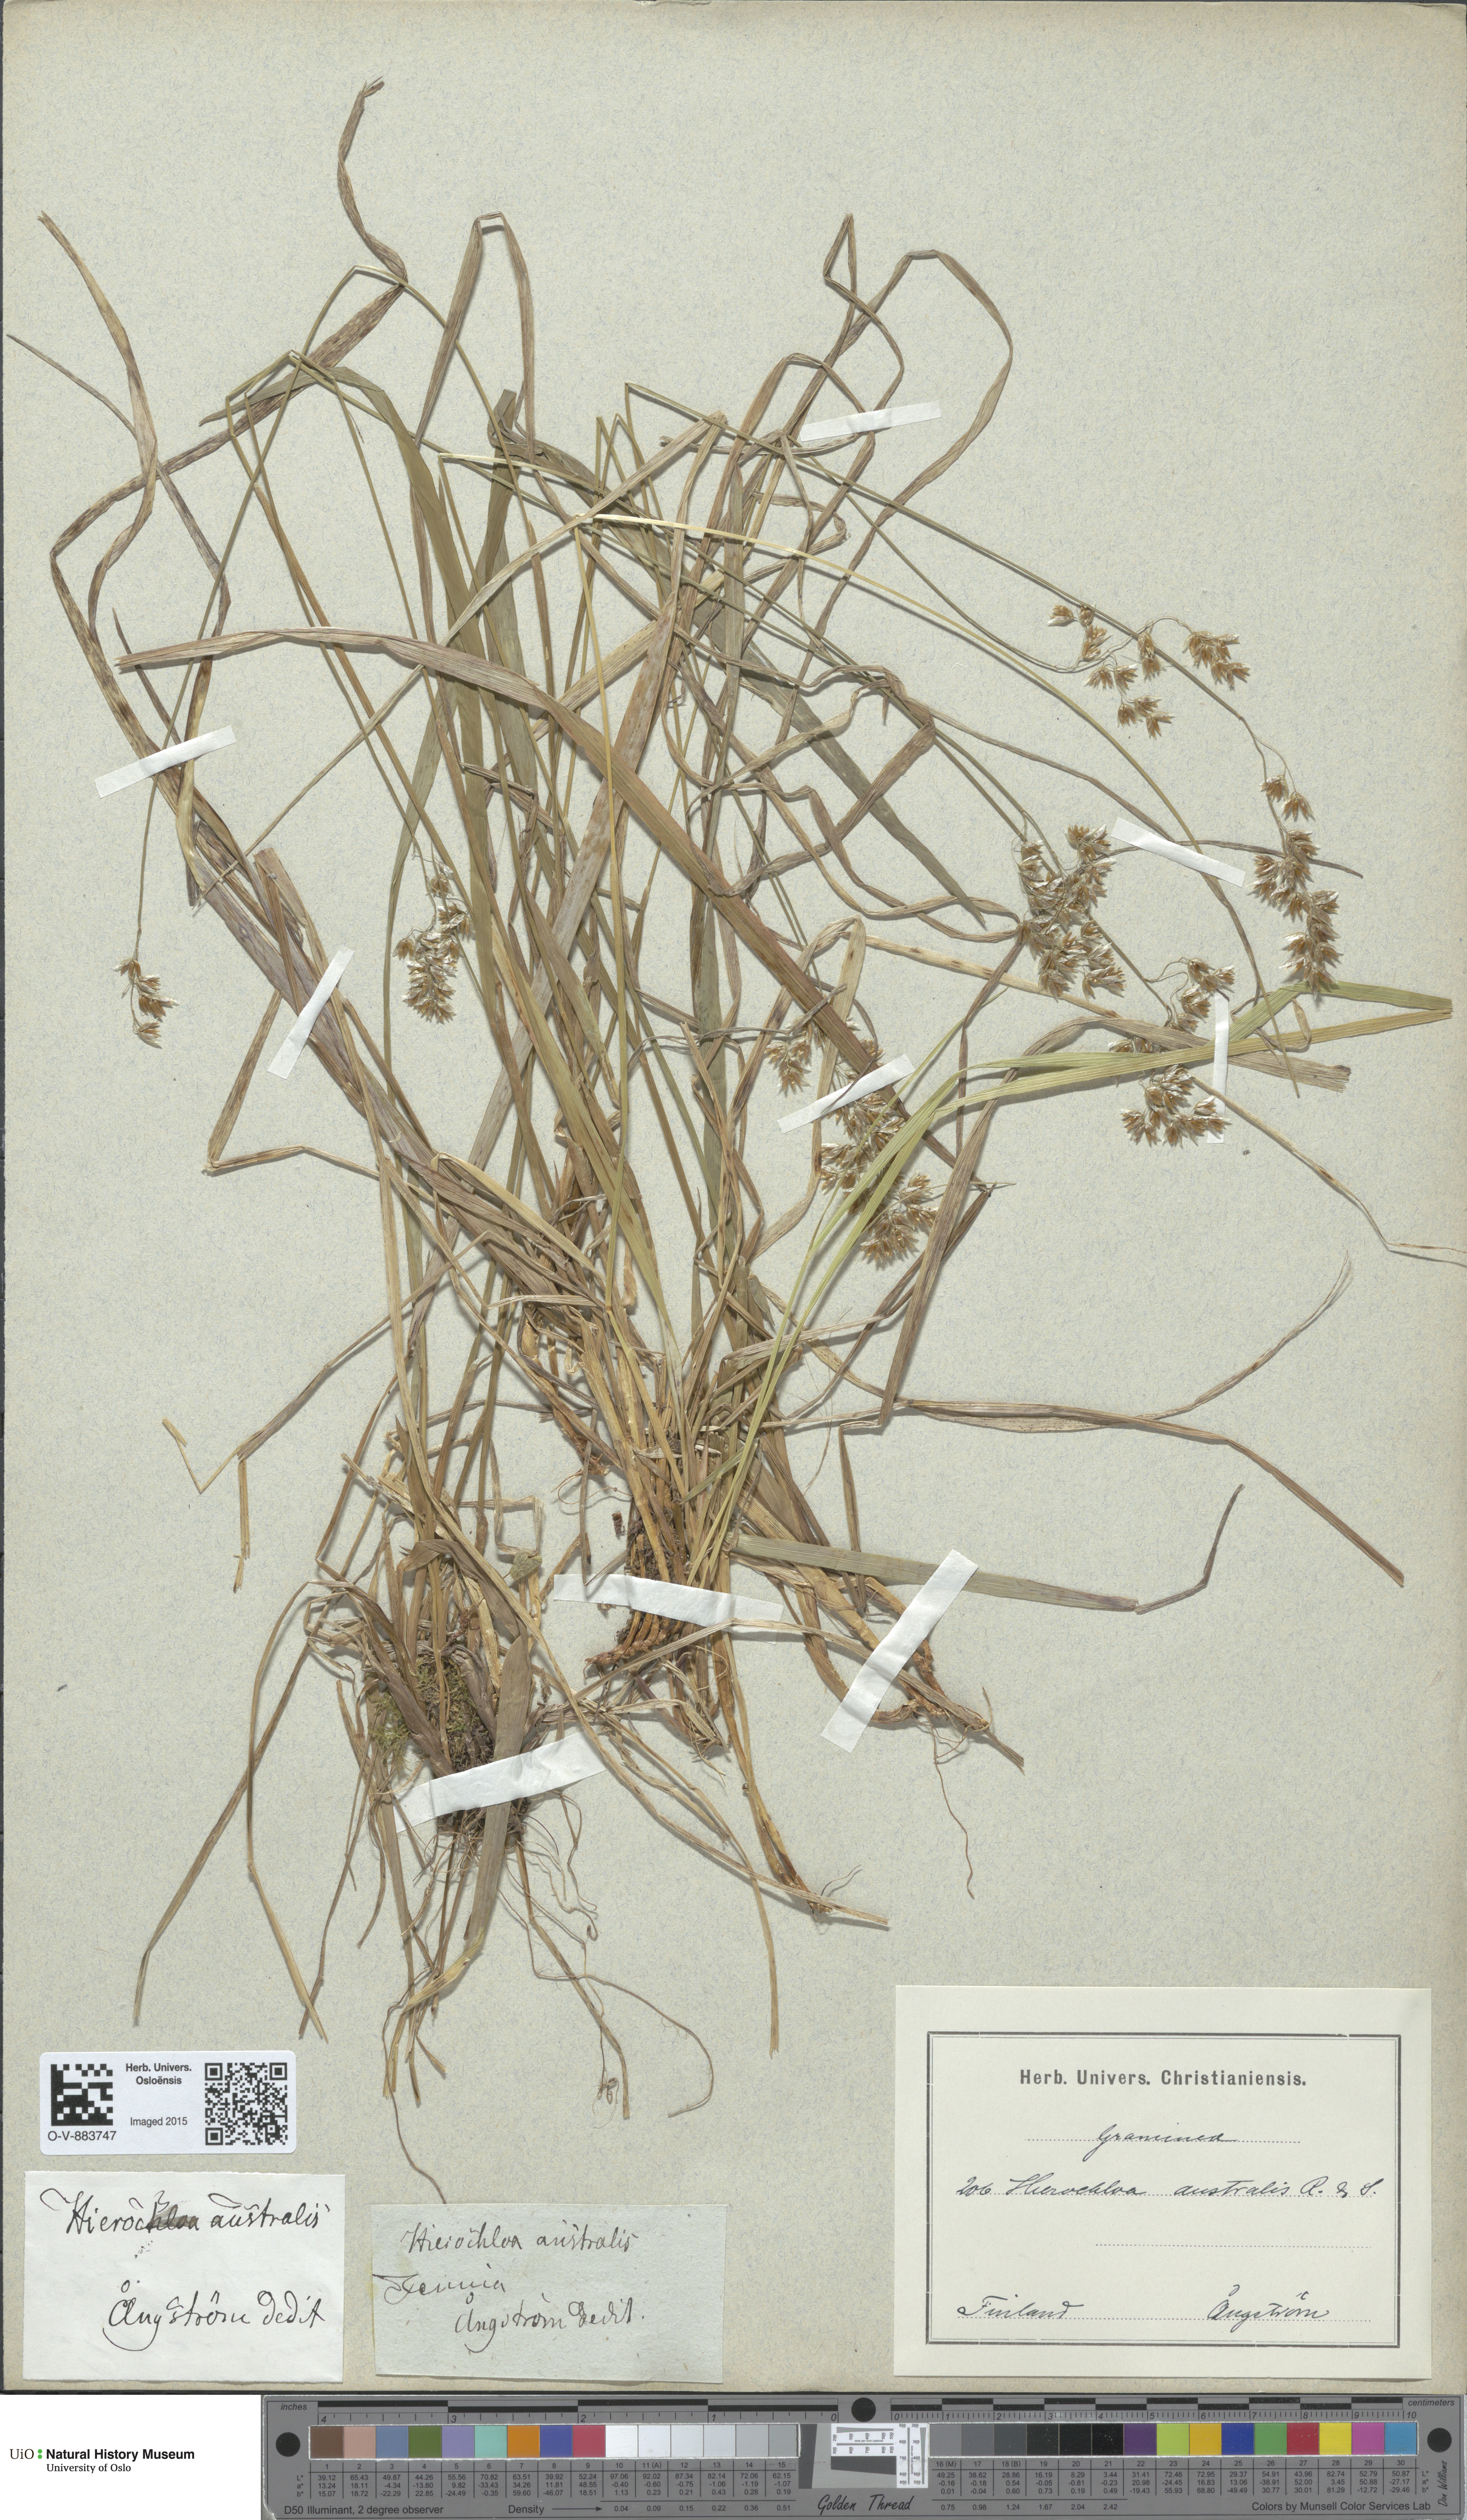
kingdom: Plantae
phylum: Tracheophyta
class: Liliopsida
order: Poales
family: Poaceae
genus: Anthoxanthum
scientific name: Anthoxanthum australe
